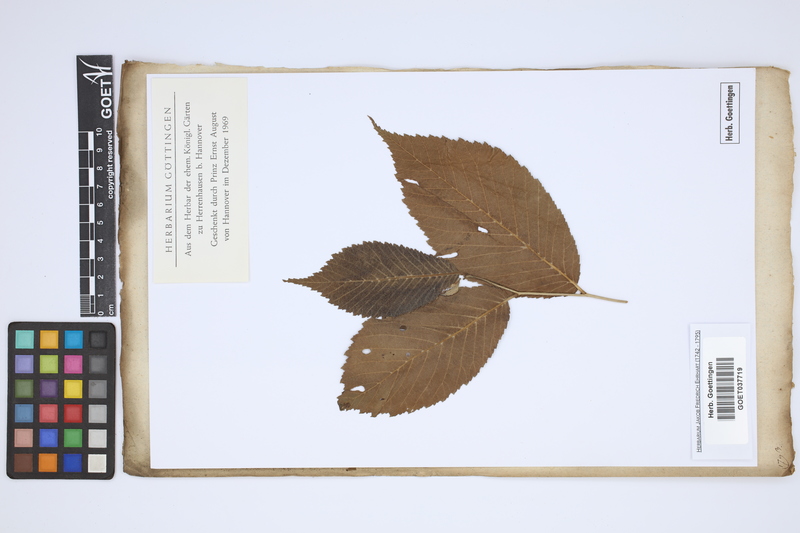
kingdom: Plantae
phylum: Tracheophyta
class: Magnoliopsida
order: Rosales
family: Ulmaceae
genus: Ulmus
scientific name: Ulmus americana
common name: American elm
